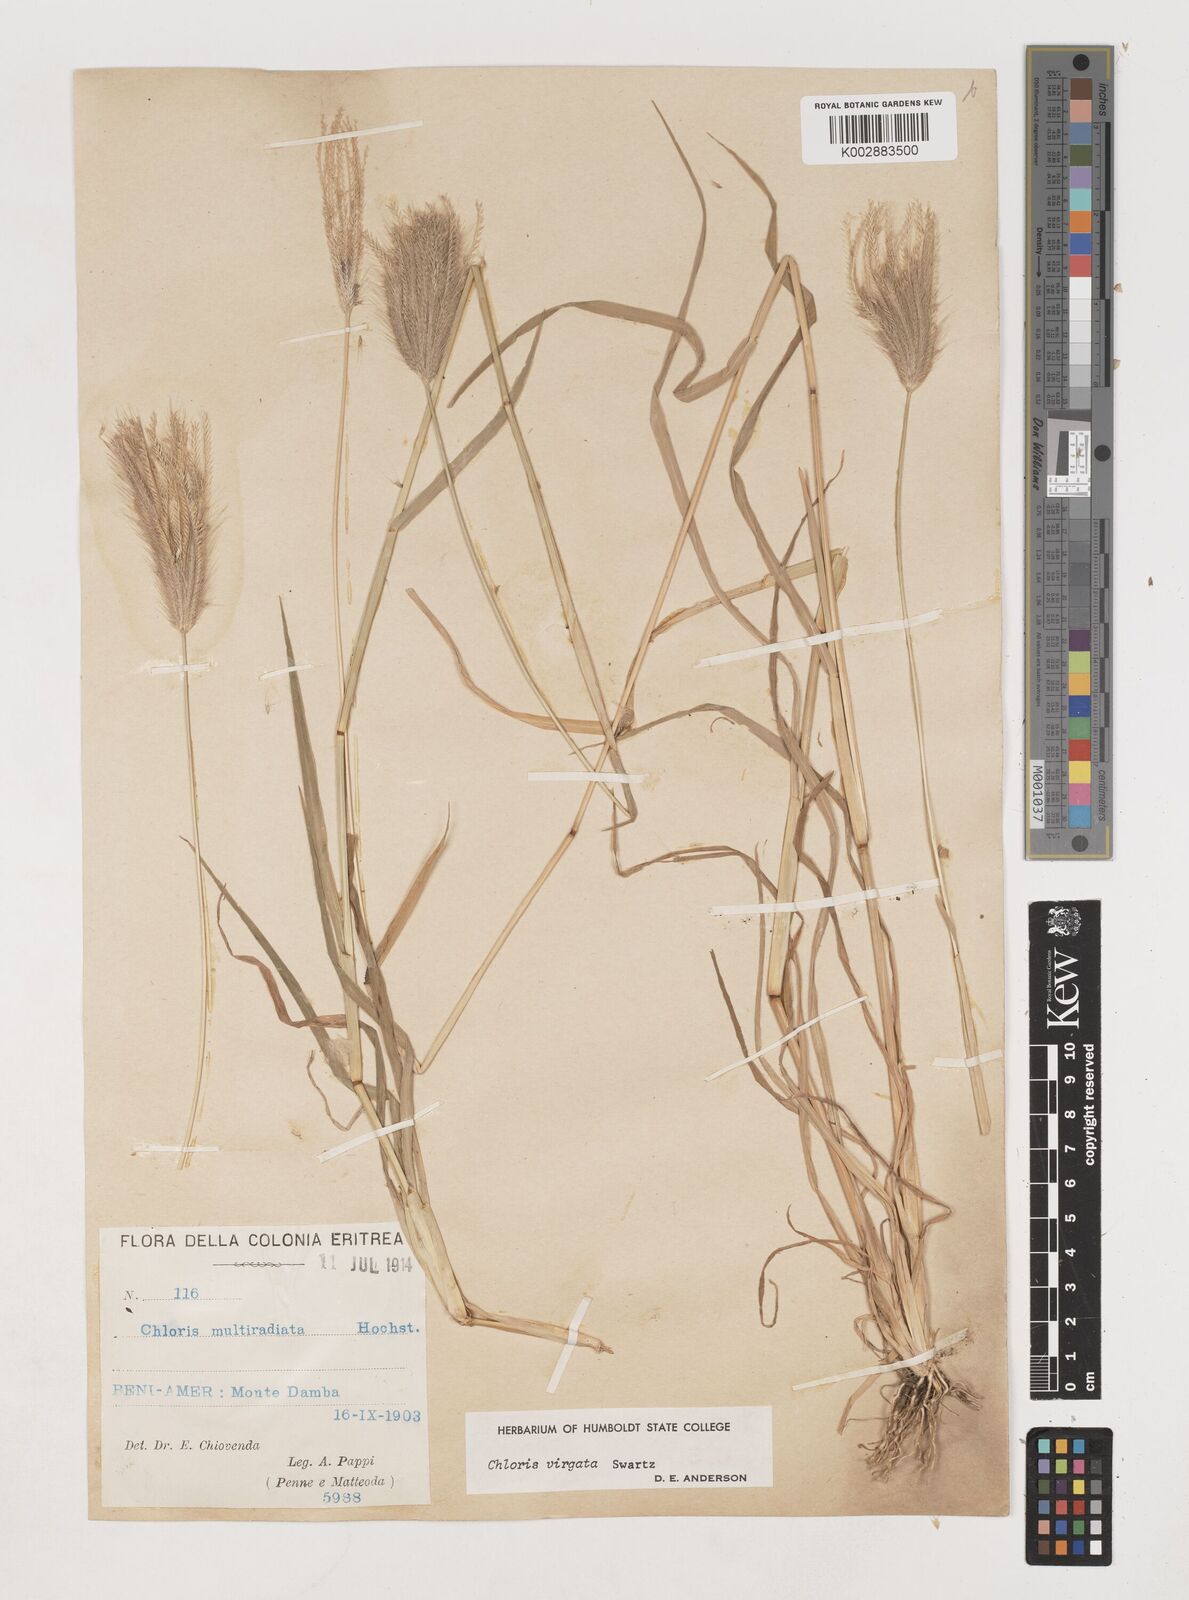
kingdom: Plantae
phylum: Tracheophyta
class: Liliopsida
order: Poales
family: Poaceae
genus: Chloris
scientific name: Chloris virgata
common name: Feathery rhodes-grass
